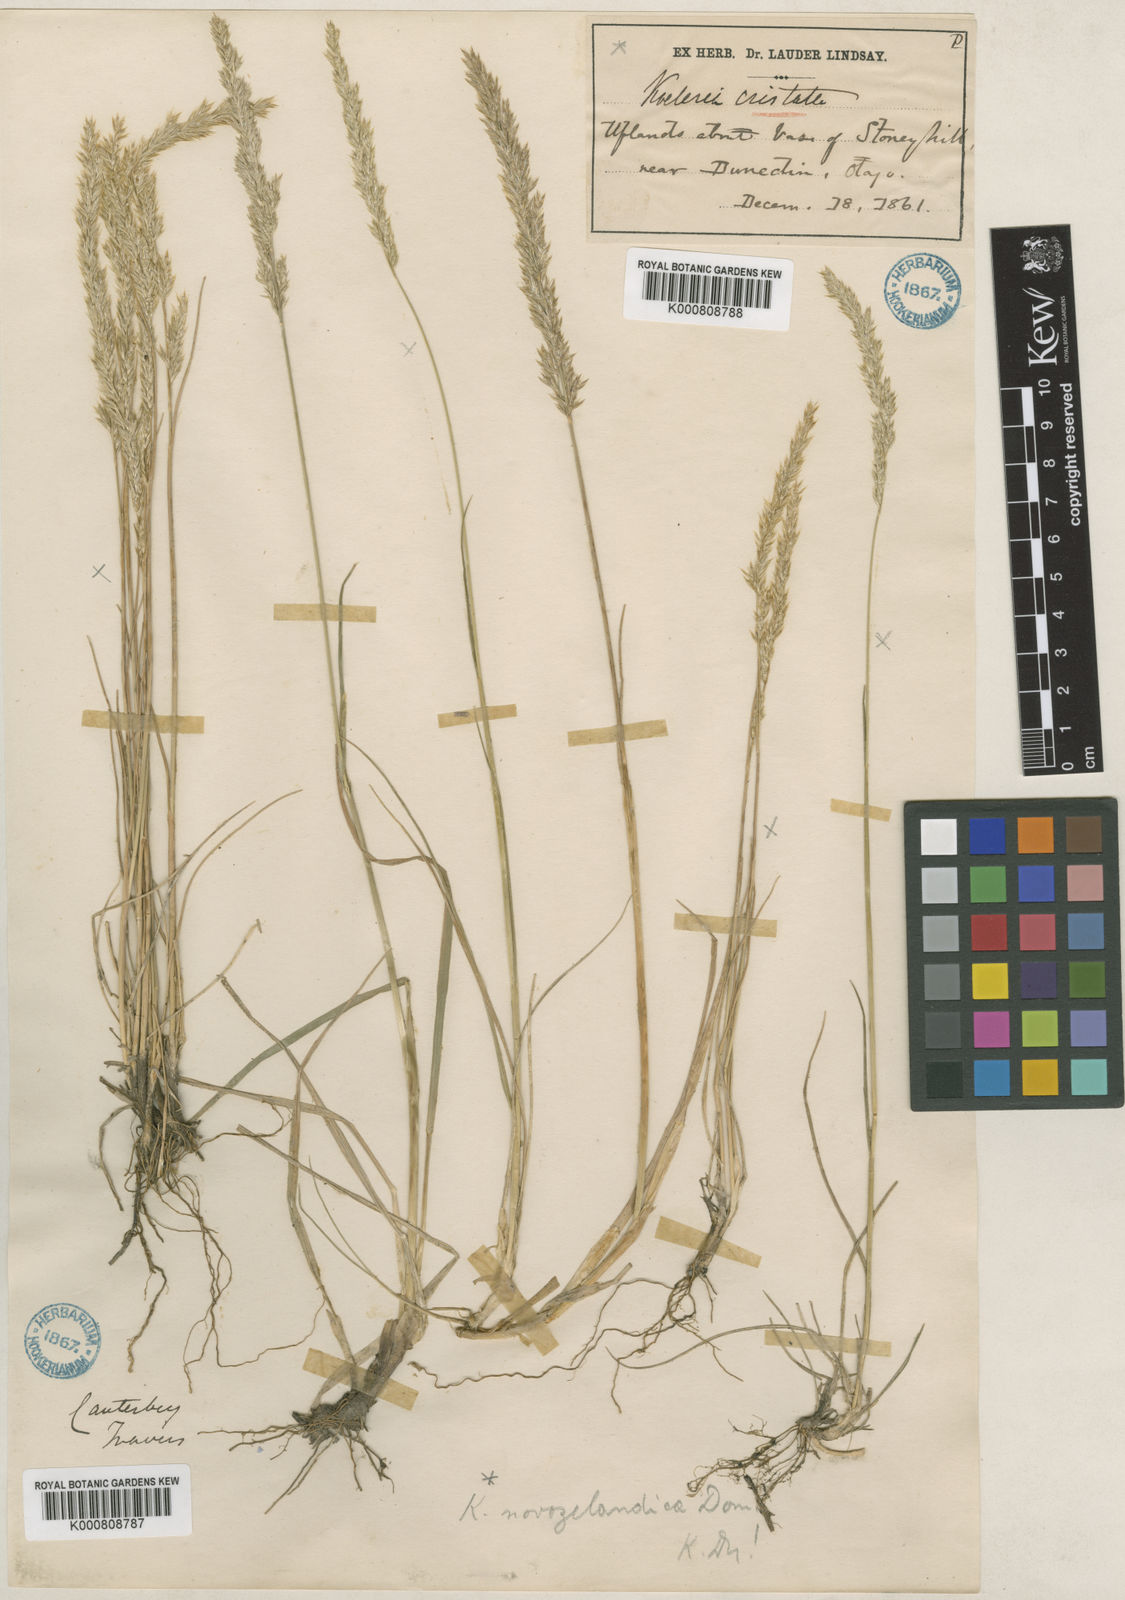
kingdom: Plantae
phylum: Tracheophyta
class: Liliopsida
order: Poales
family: Poaceae
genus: Koeleria
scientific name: Koeleria novozelandica
